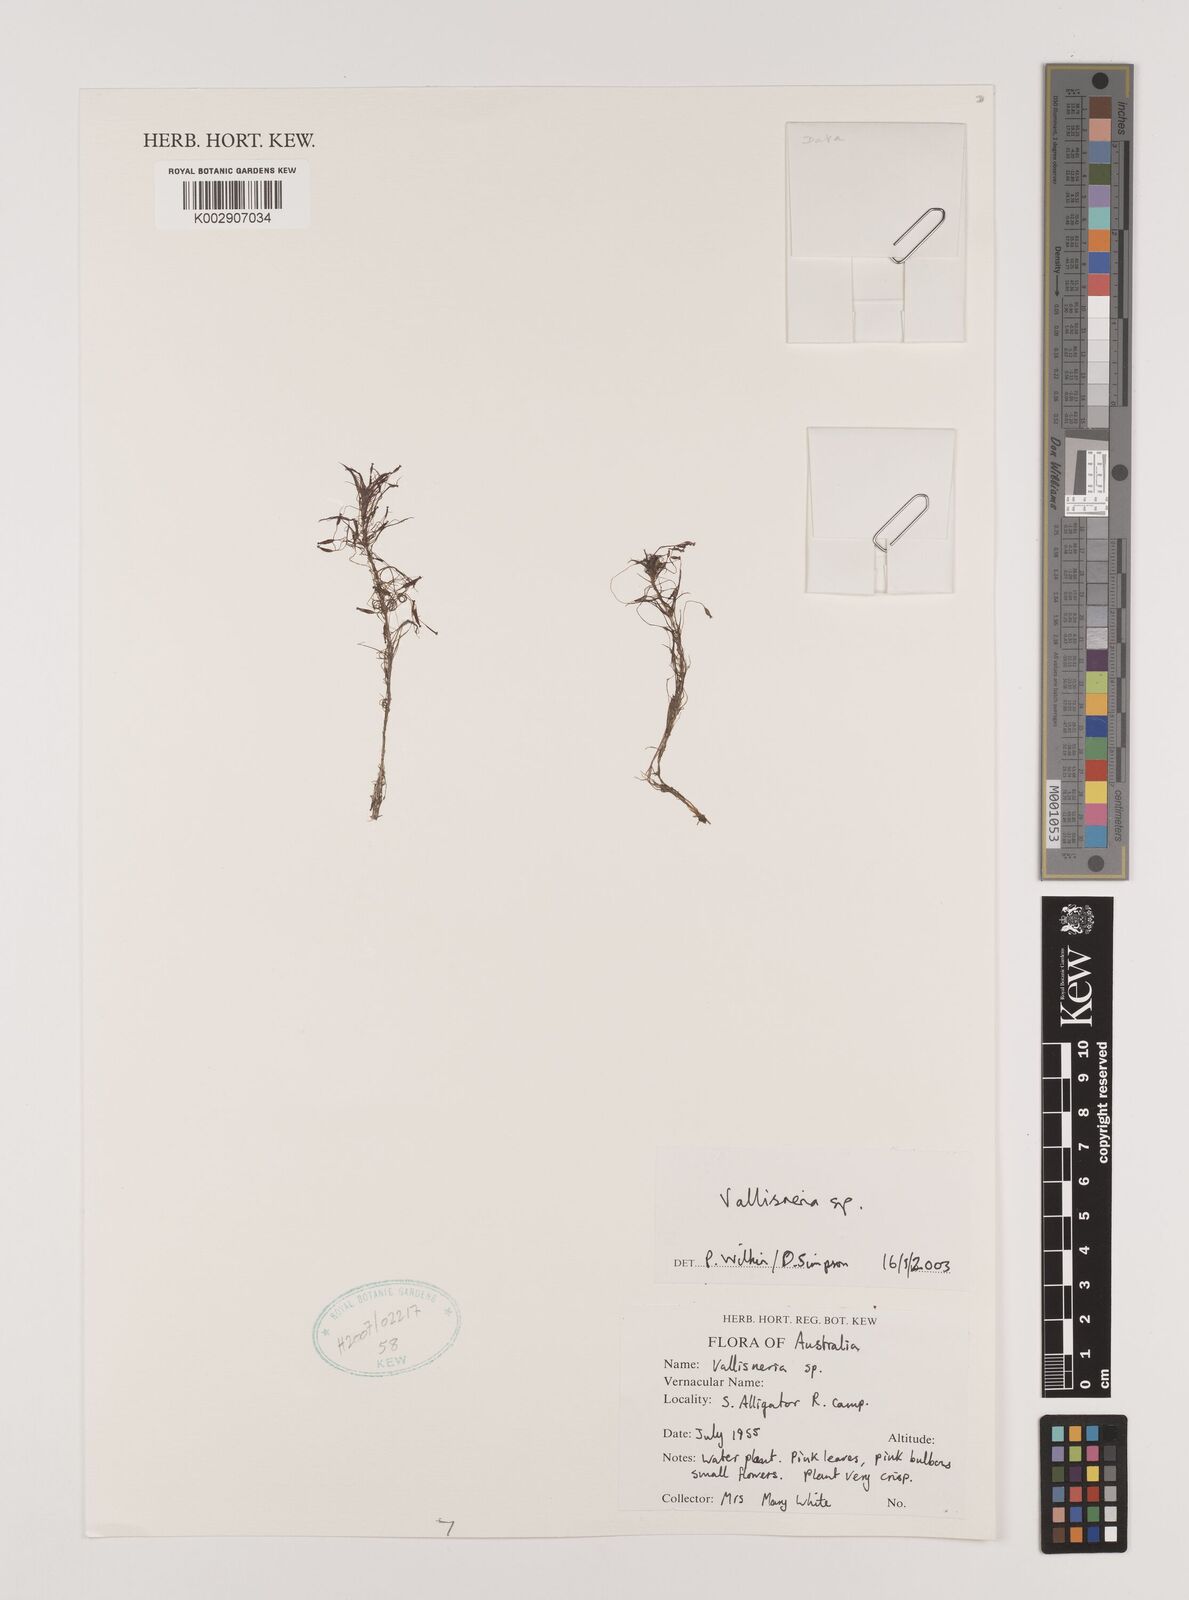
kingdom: Plantae
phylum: Tracheophyta
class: Liliopsida
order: Alismatales
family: Hydrocharitaceae
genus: Vallisneria
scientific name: Vallisneria
